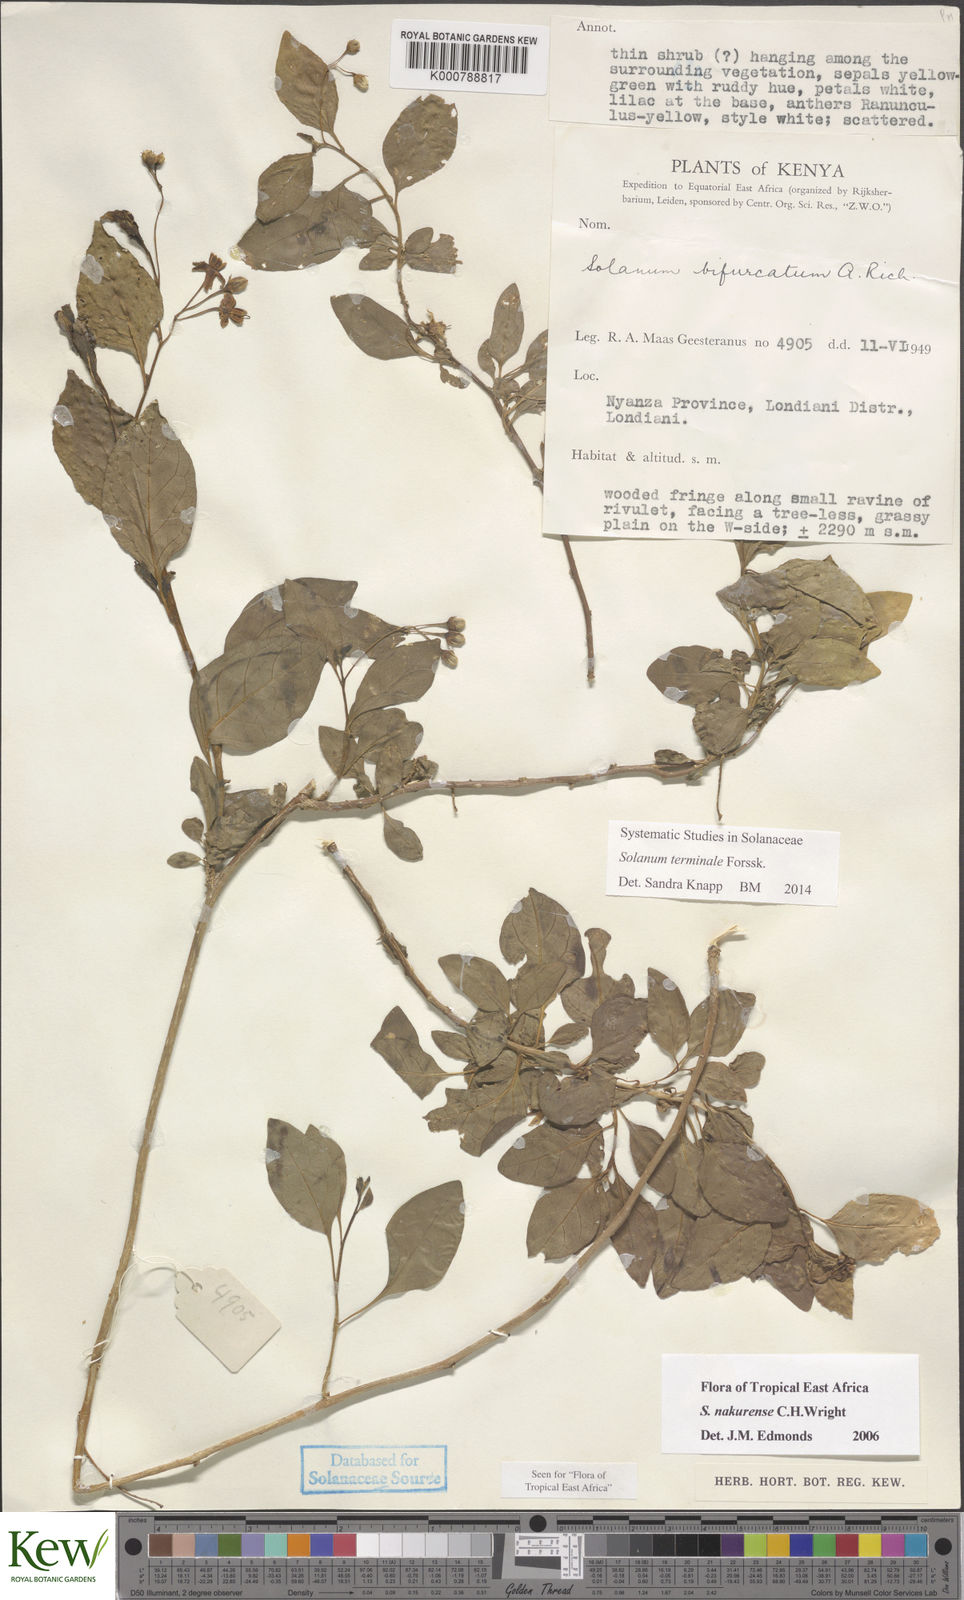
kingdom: Plantae
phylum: Tracheophyta
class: Magnoliopsida
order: Solanales
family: Solanaceae
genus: Solanum
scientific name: Solanum terminale
